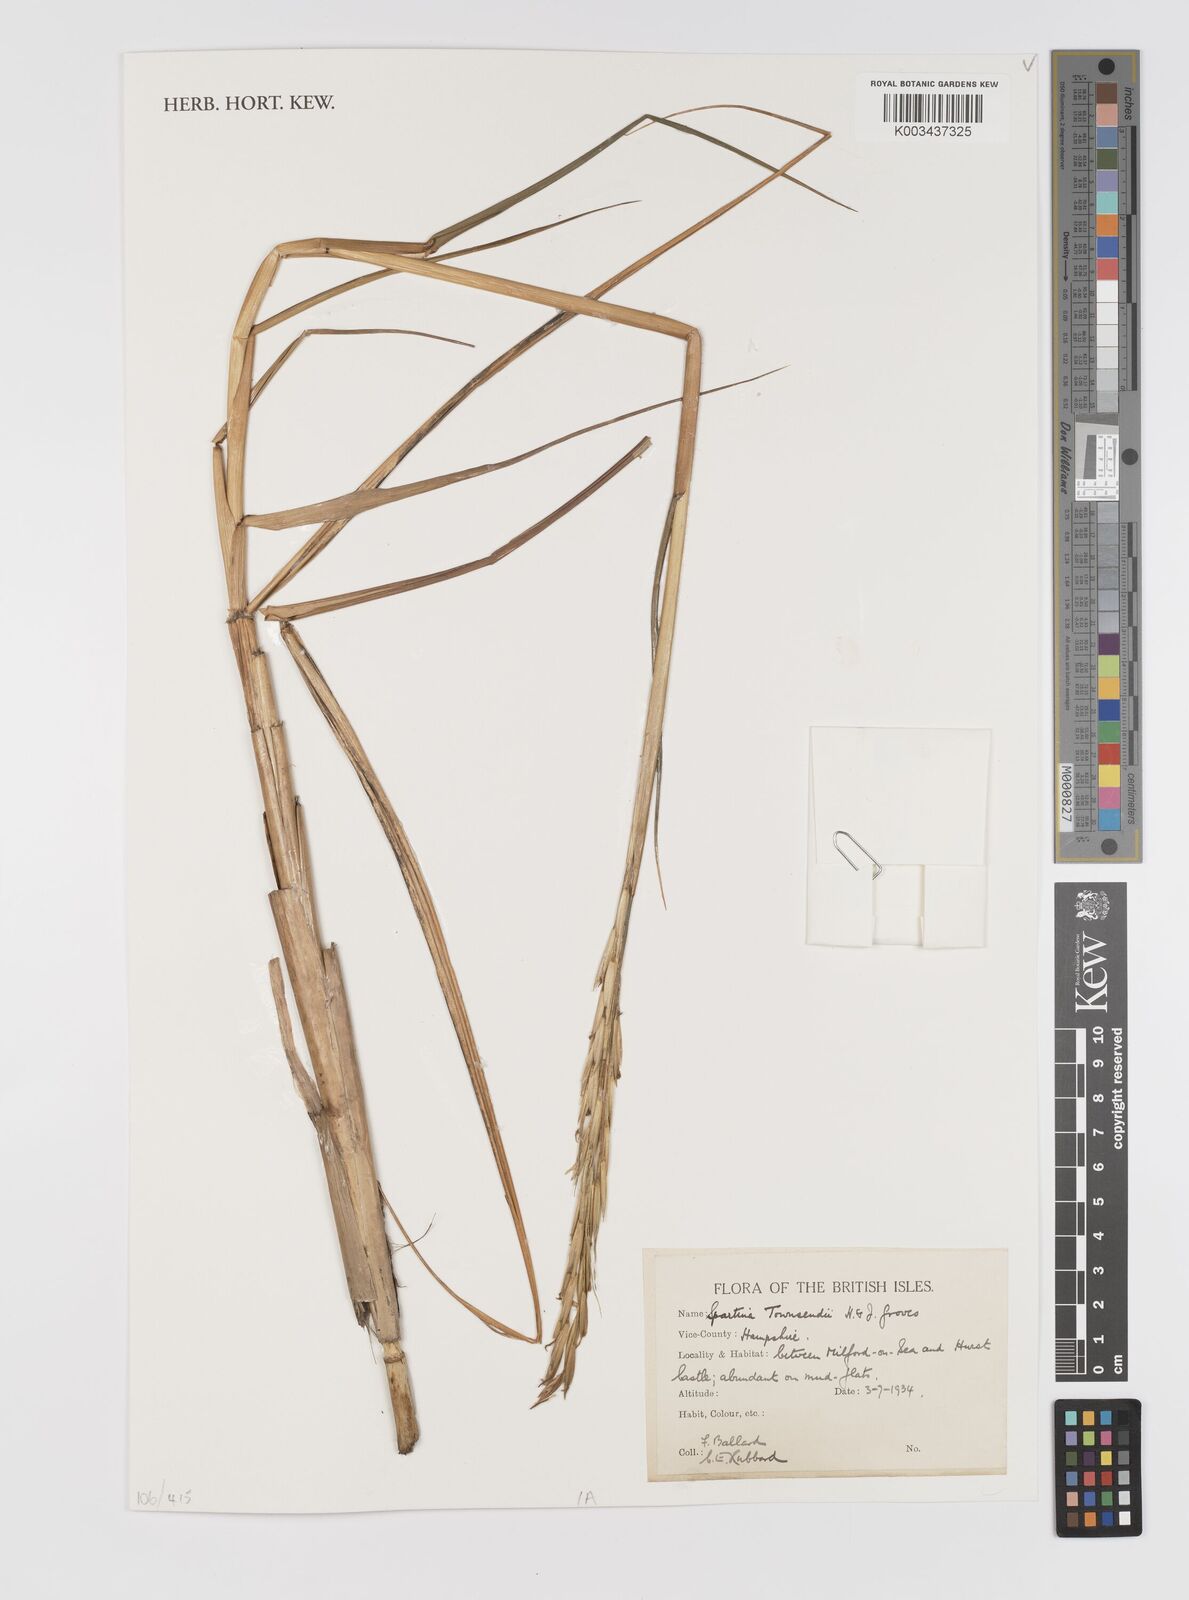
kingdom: Plantae
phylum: Tracheophyta
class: Liliopsida
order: Poales
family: Poaceae
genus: Sporobolus
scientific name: Sporobolus townsendii
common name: Townsend's cordgrass
